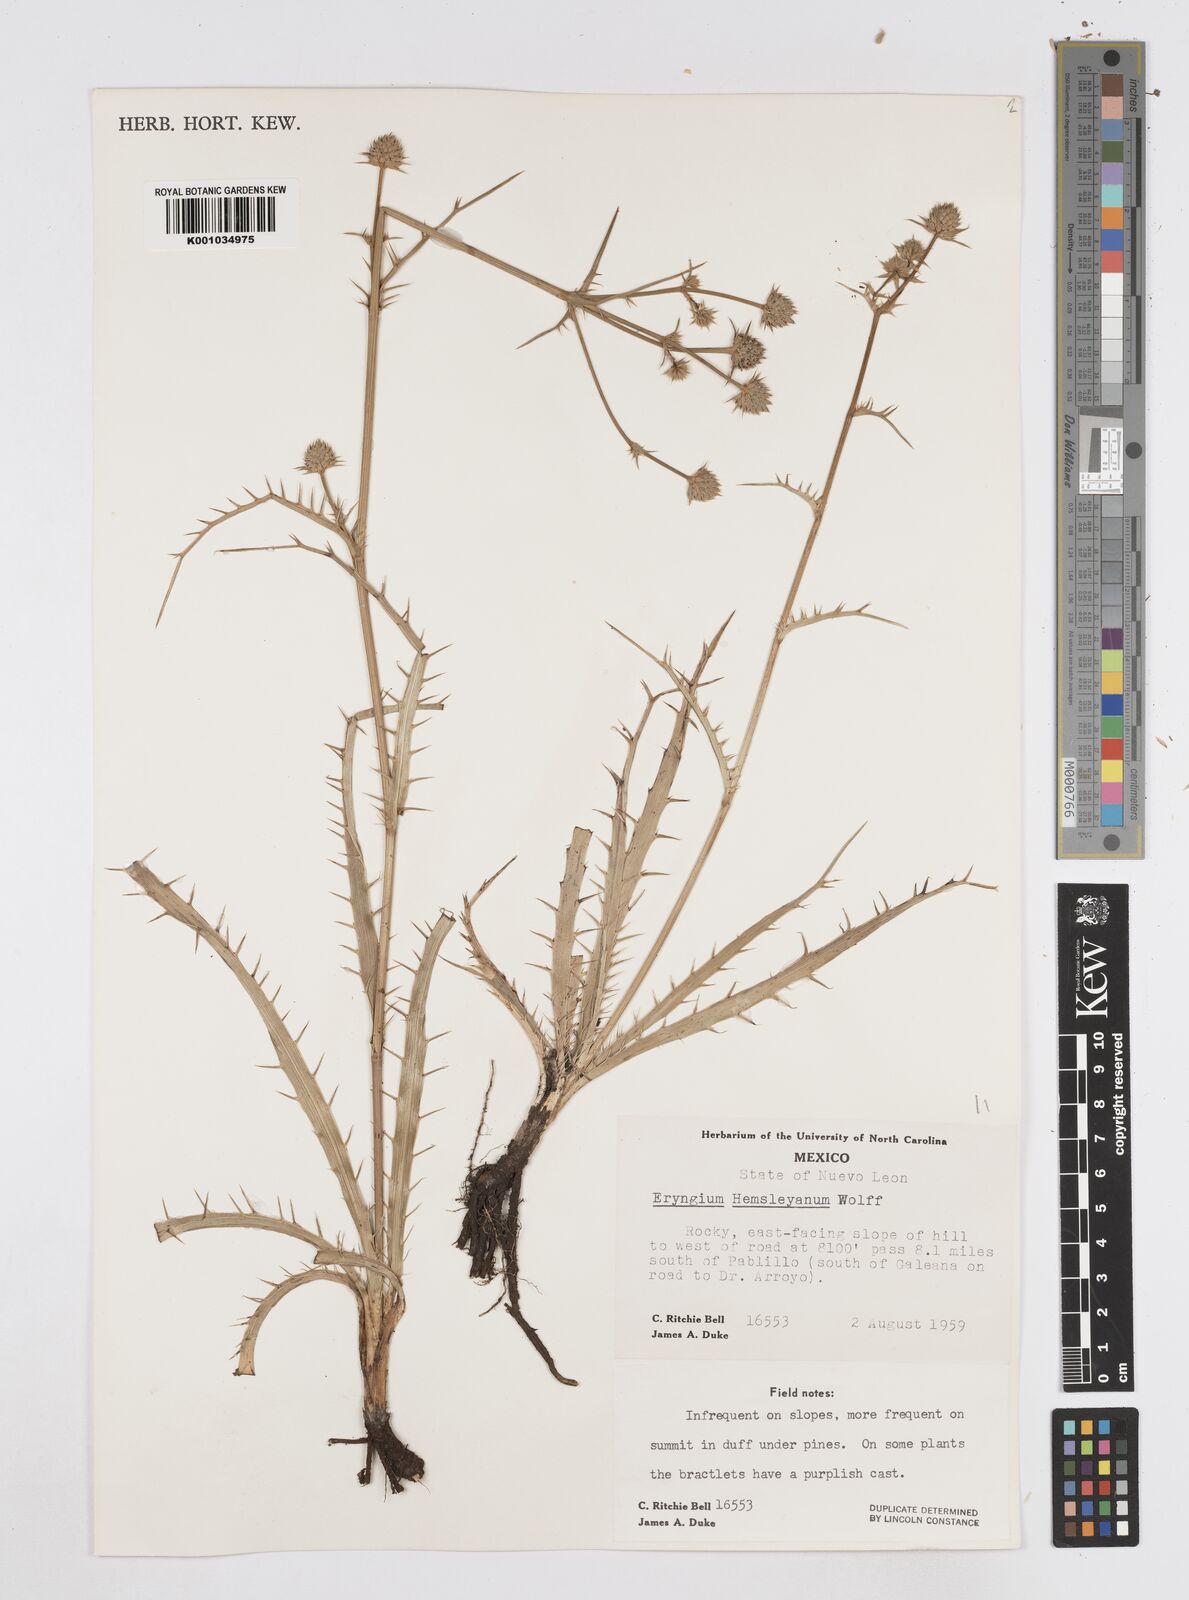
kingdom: Plantae
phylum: Tracheophyta
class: Magnoliopsida
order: Apiales
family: Apiaceae
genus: Eryngium
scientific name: Eryngium hemsleyanum
